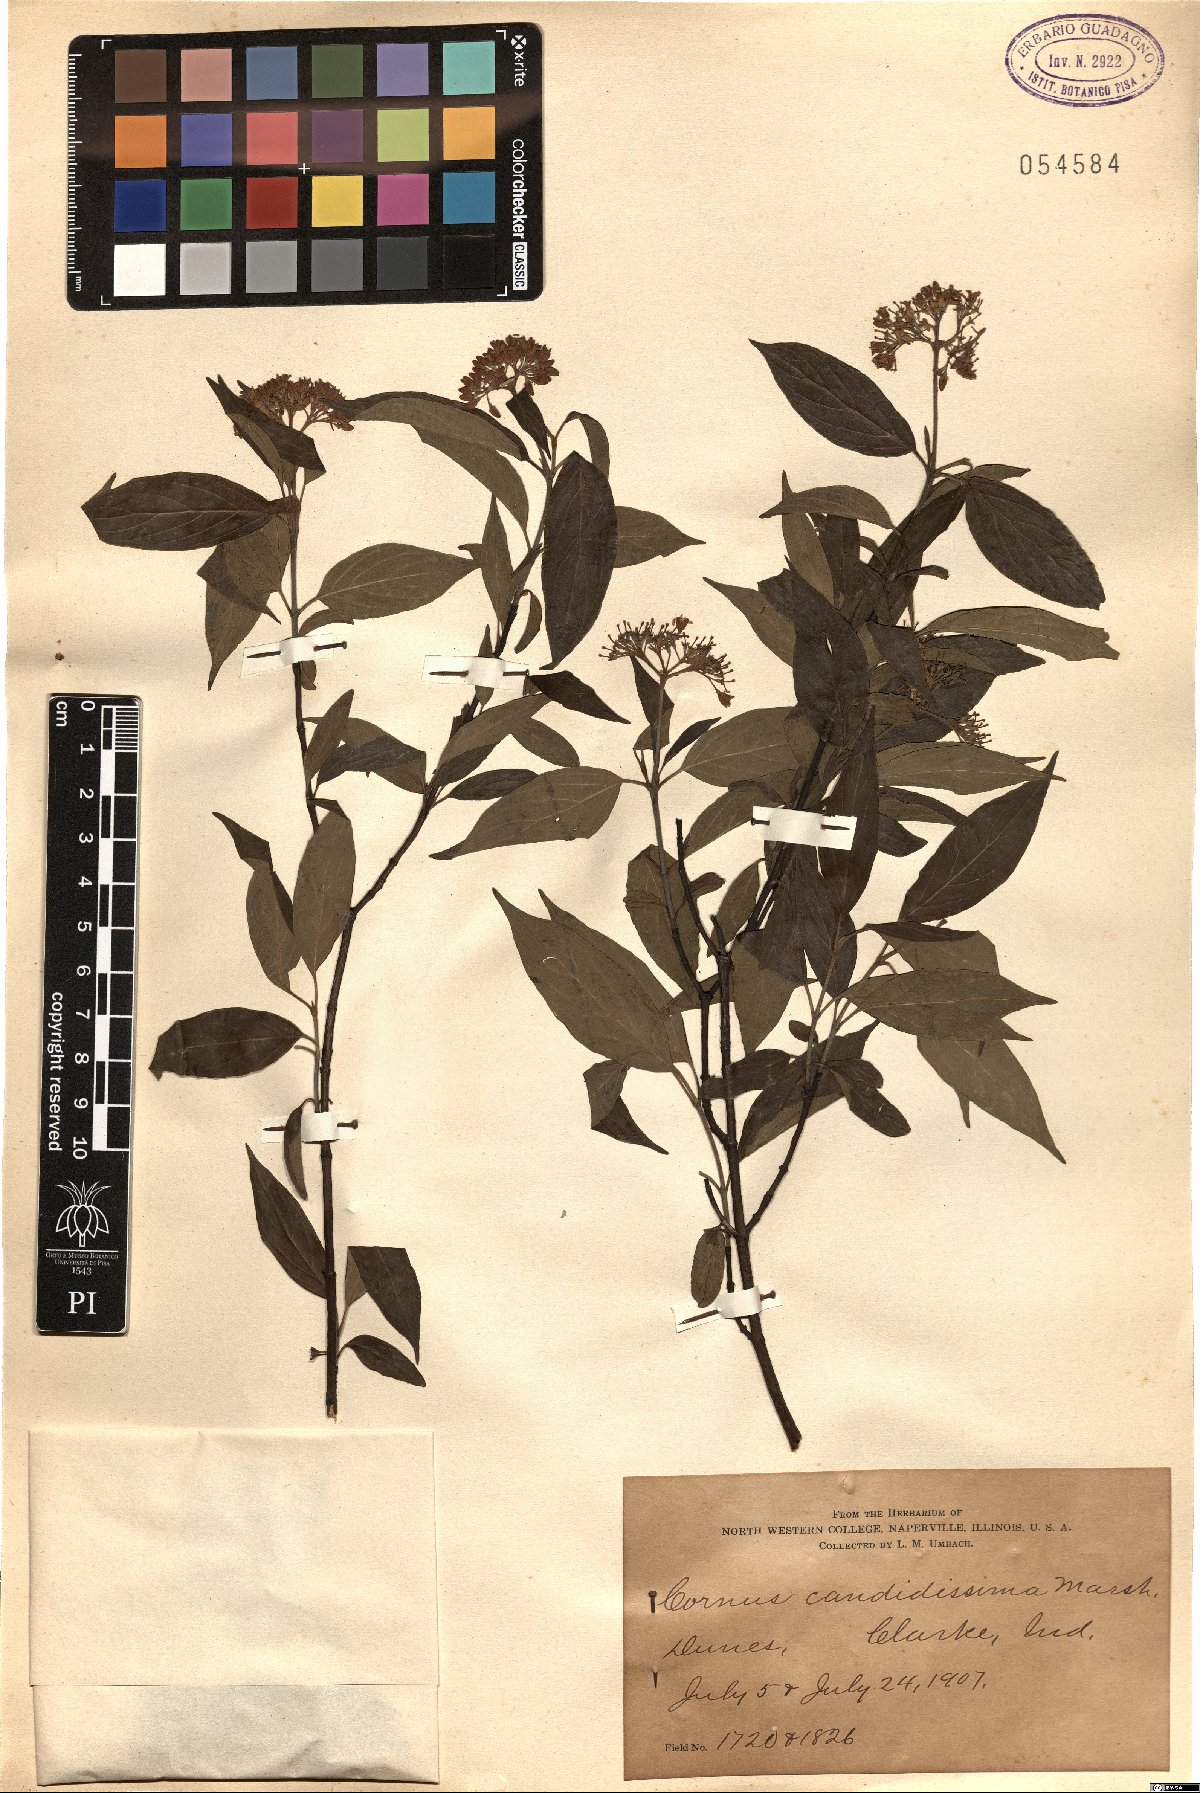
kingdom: Plantae
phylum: Tracheophyta
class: Magnoliopsida
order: Cornales
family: Cornaceae
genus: Cornus
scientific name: Cornus foemina
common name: Swamp dogwood
